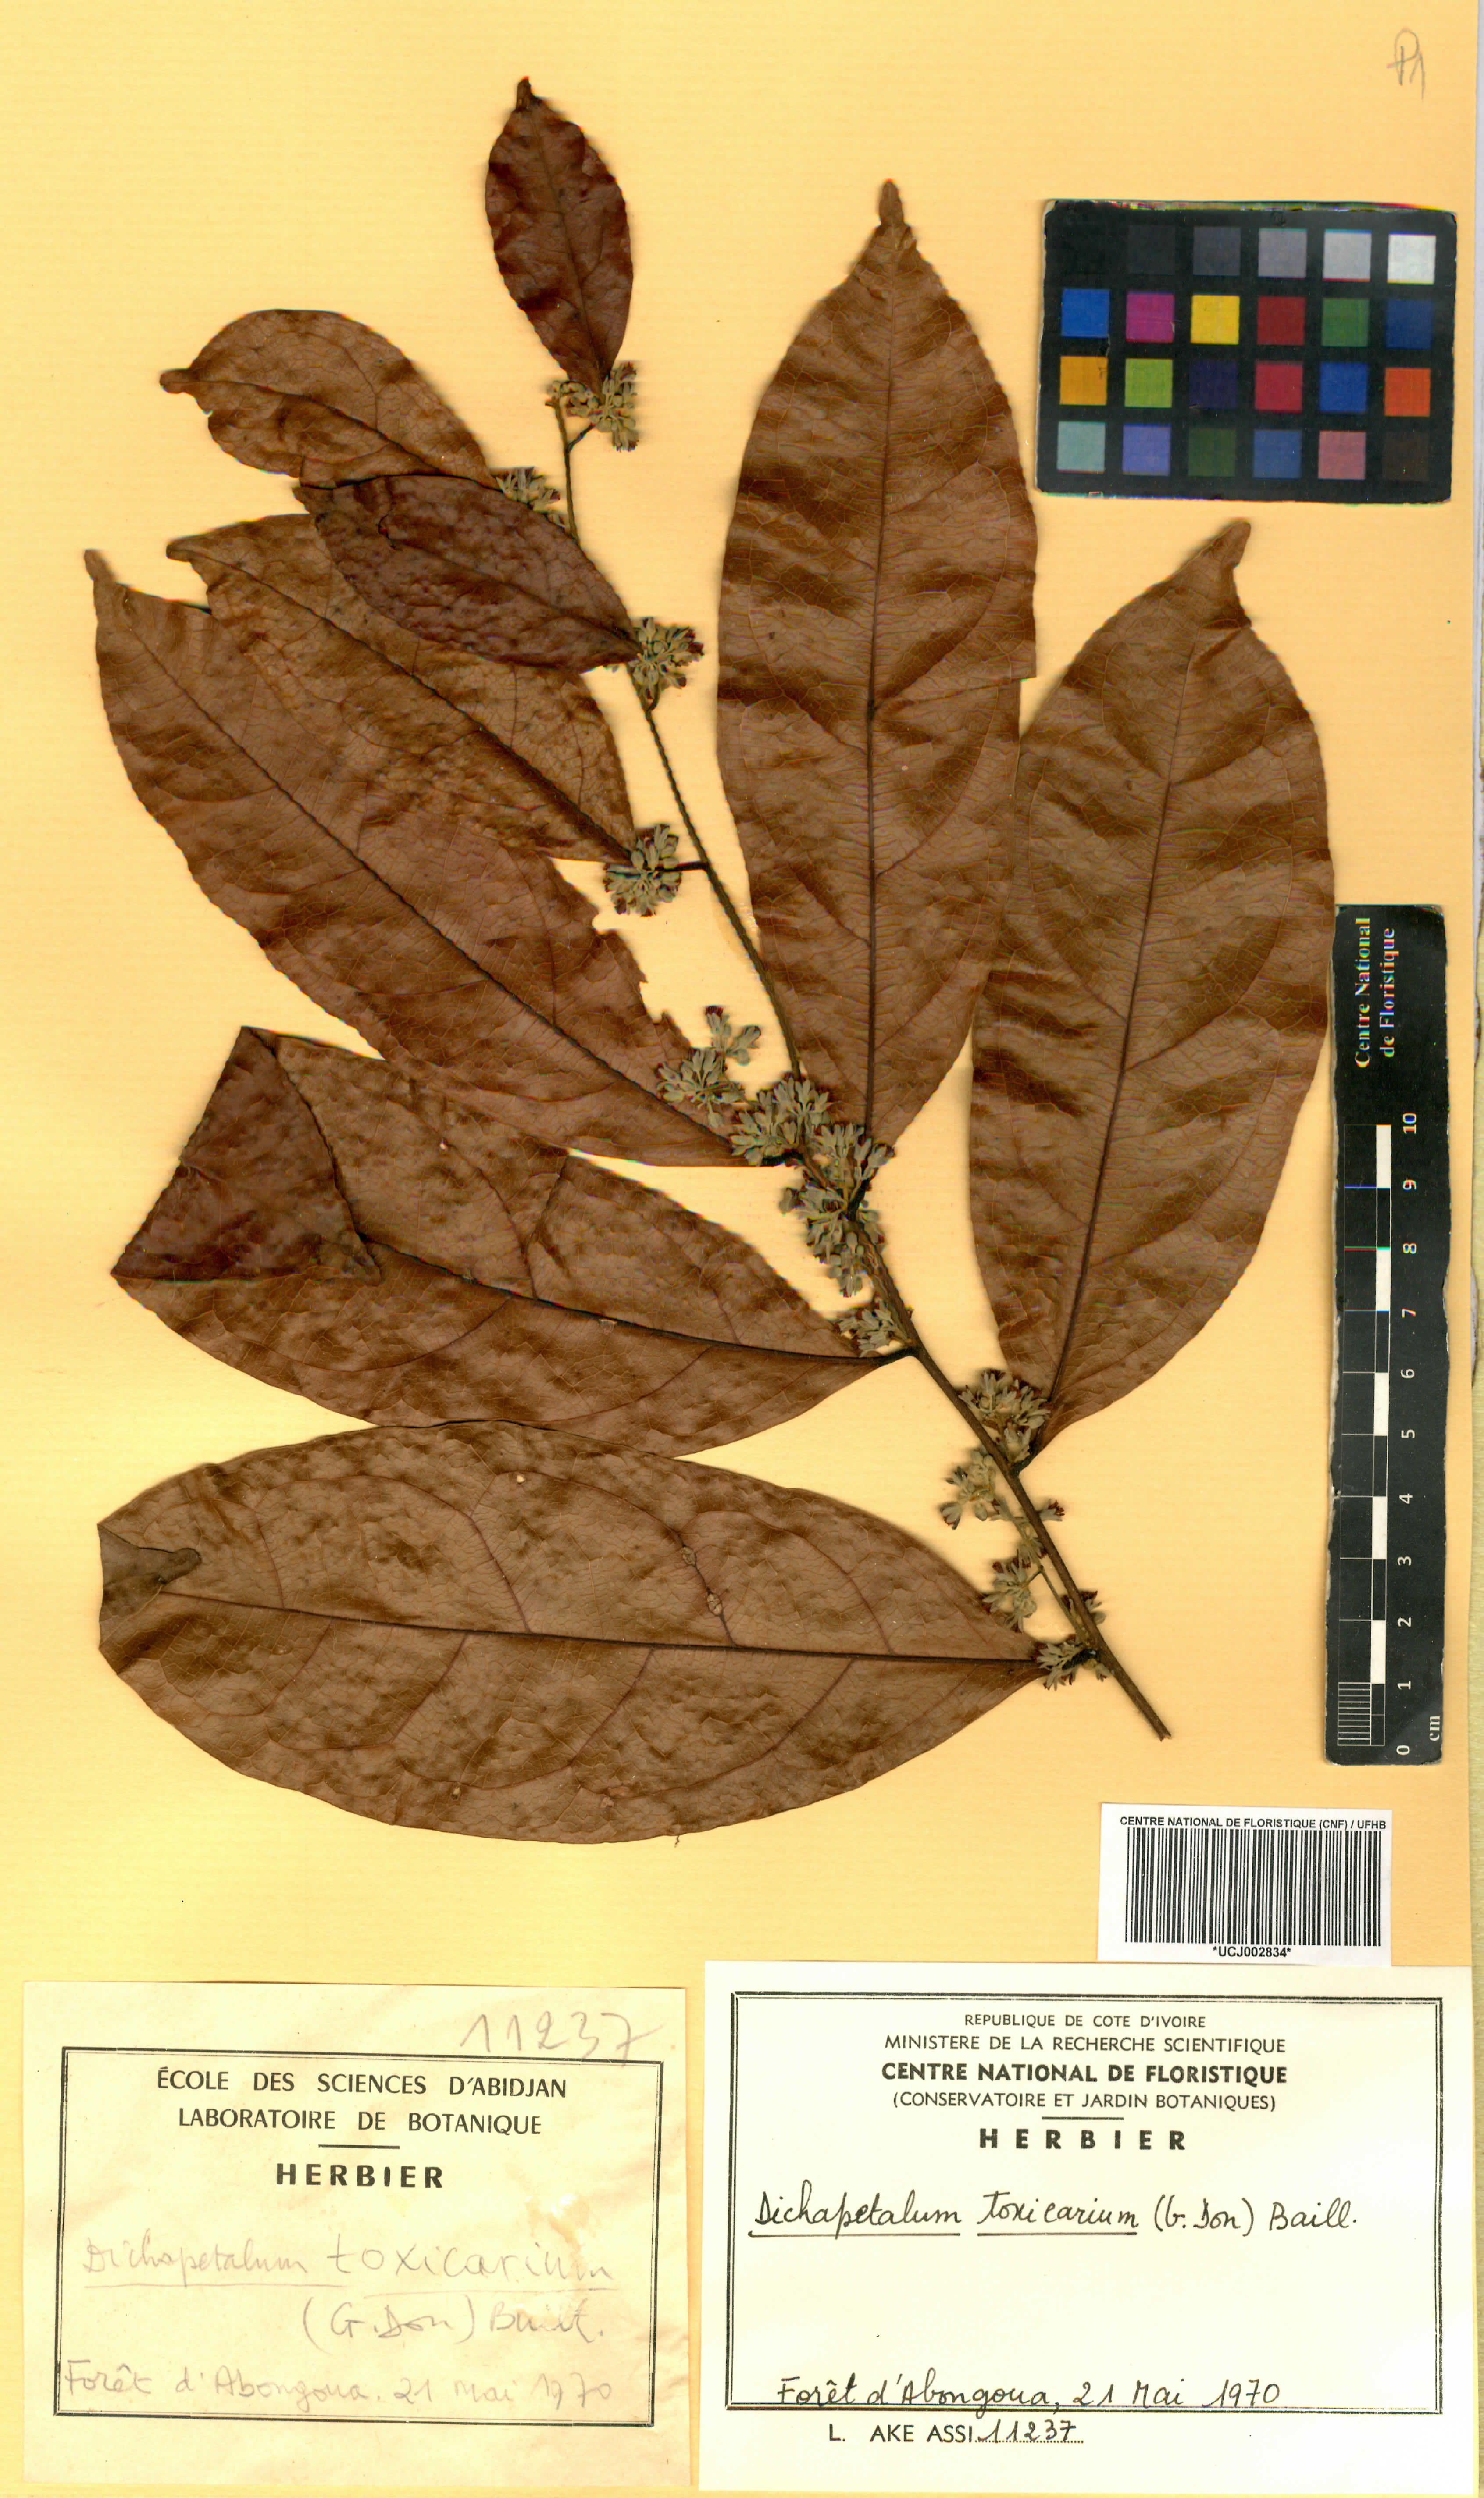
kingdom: Plantae
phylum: Tracheophyta
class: Magnoliopsida
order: Malpighiales
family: Dichapetalaceae
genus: Dichapetalum
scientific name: Dichapetalum toxicarium
